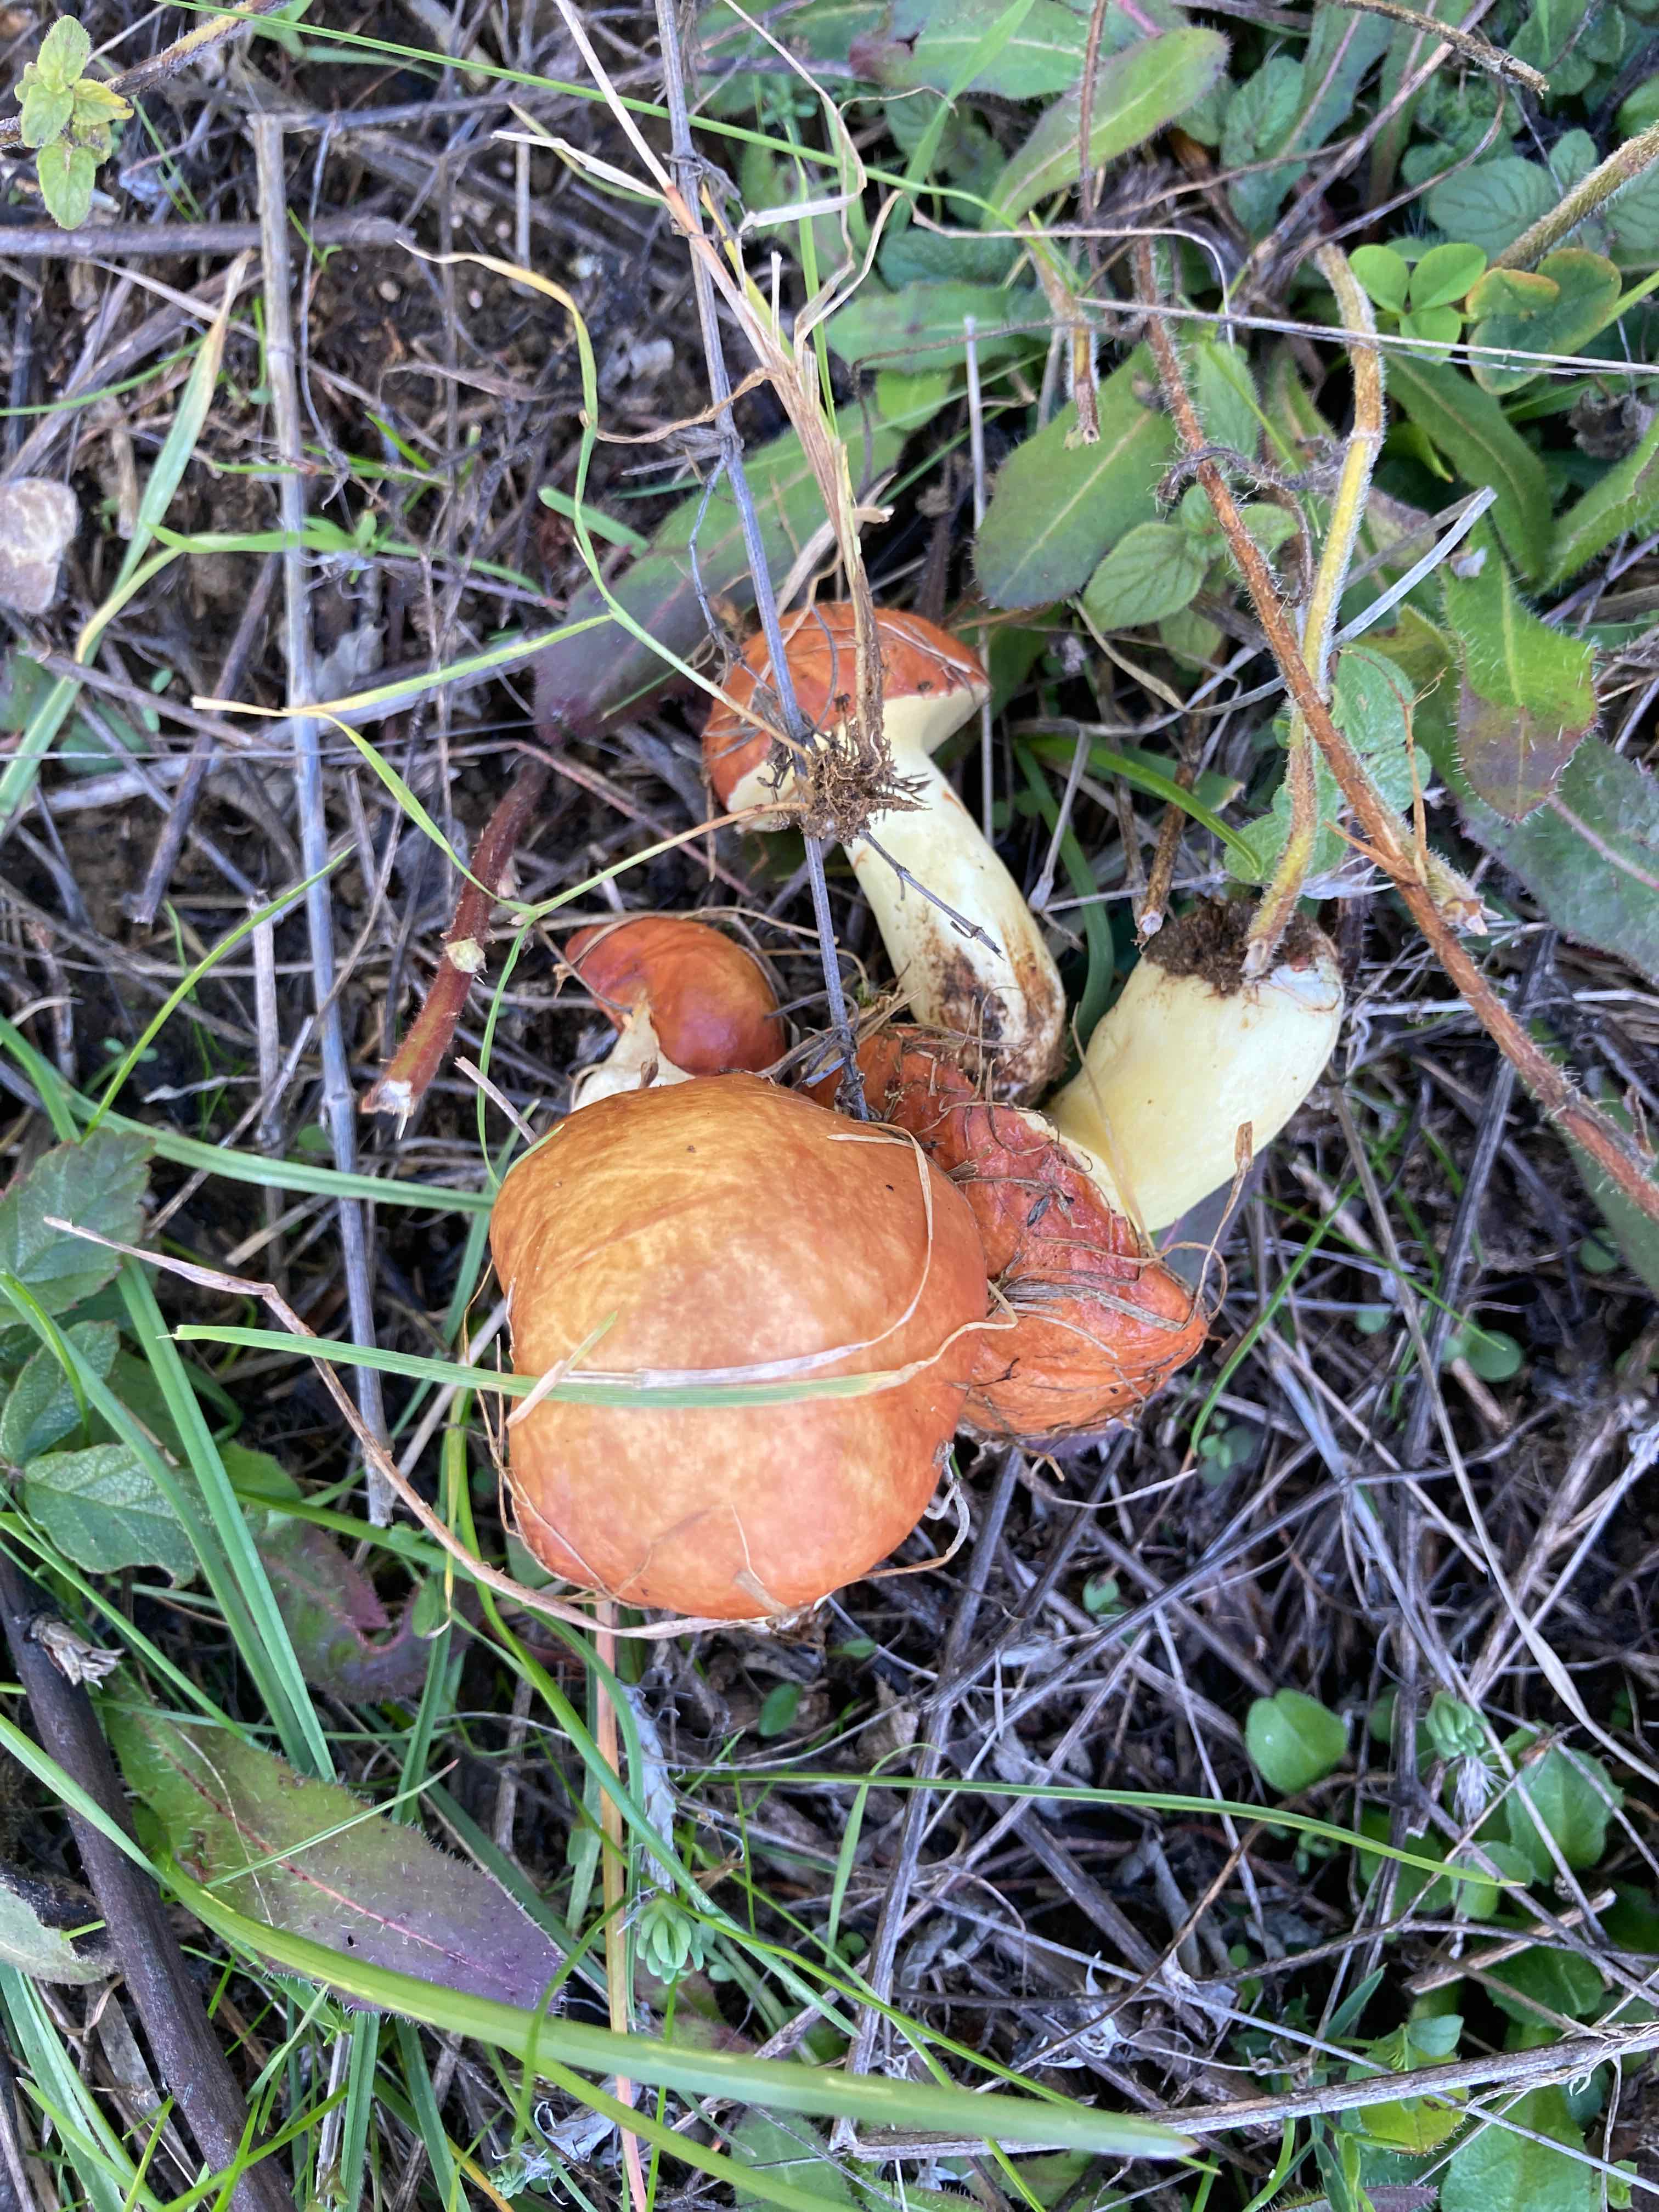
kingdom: Fungi
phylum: Basidiomycota
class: Agaricomycetes
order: Boletales
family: Suillaceae
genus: Suillus
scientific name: Suillus granulatus
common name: kornet slimrørhat
